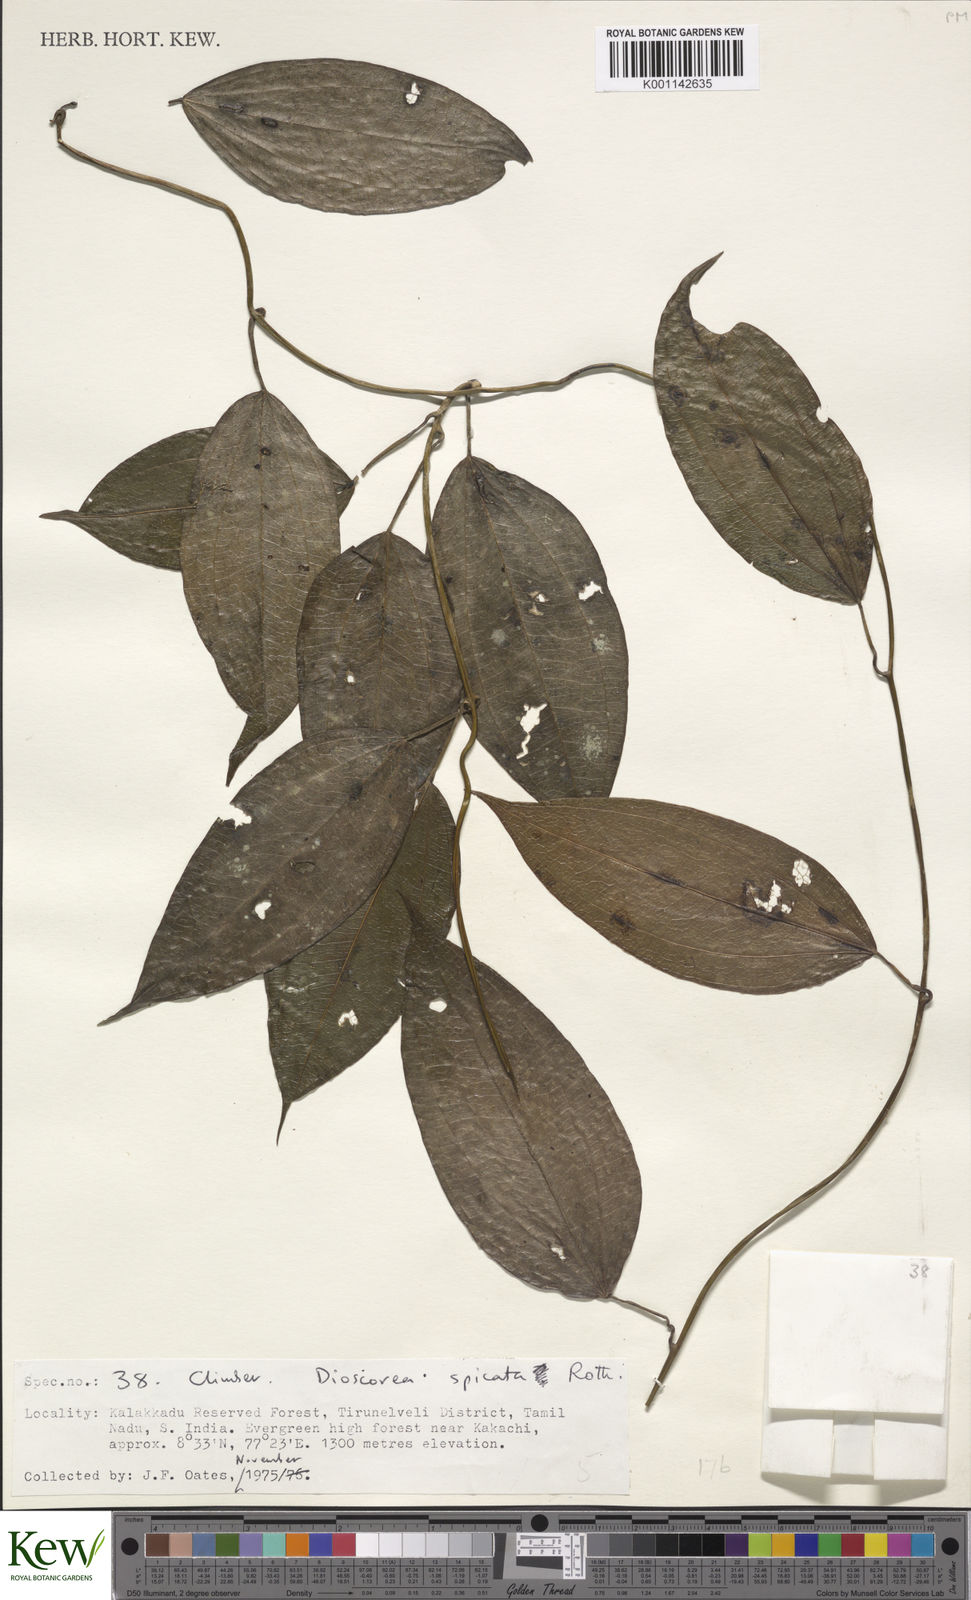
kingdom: Plantae
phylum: Tracheophyta
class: Liliopsida
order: Dioscoreales
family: Dioscoreaceae
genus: Dioscorea
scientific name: Dioscorea spicata
